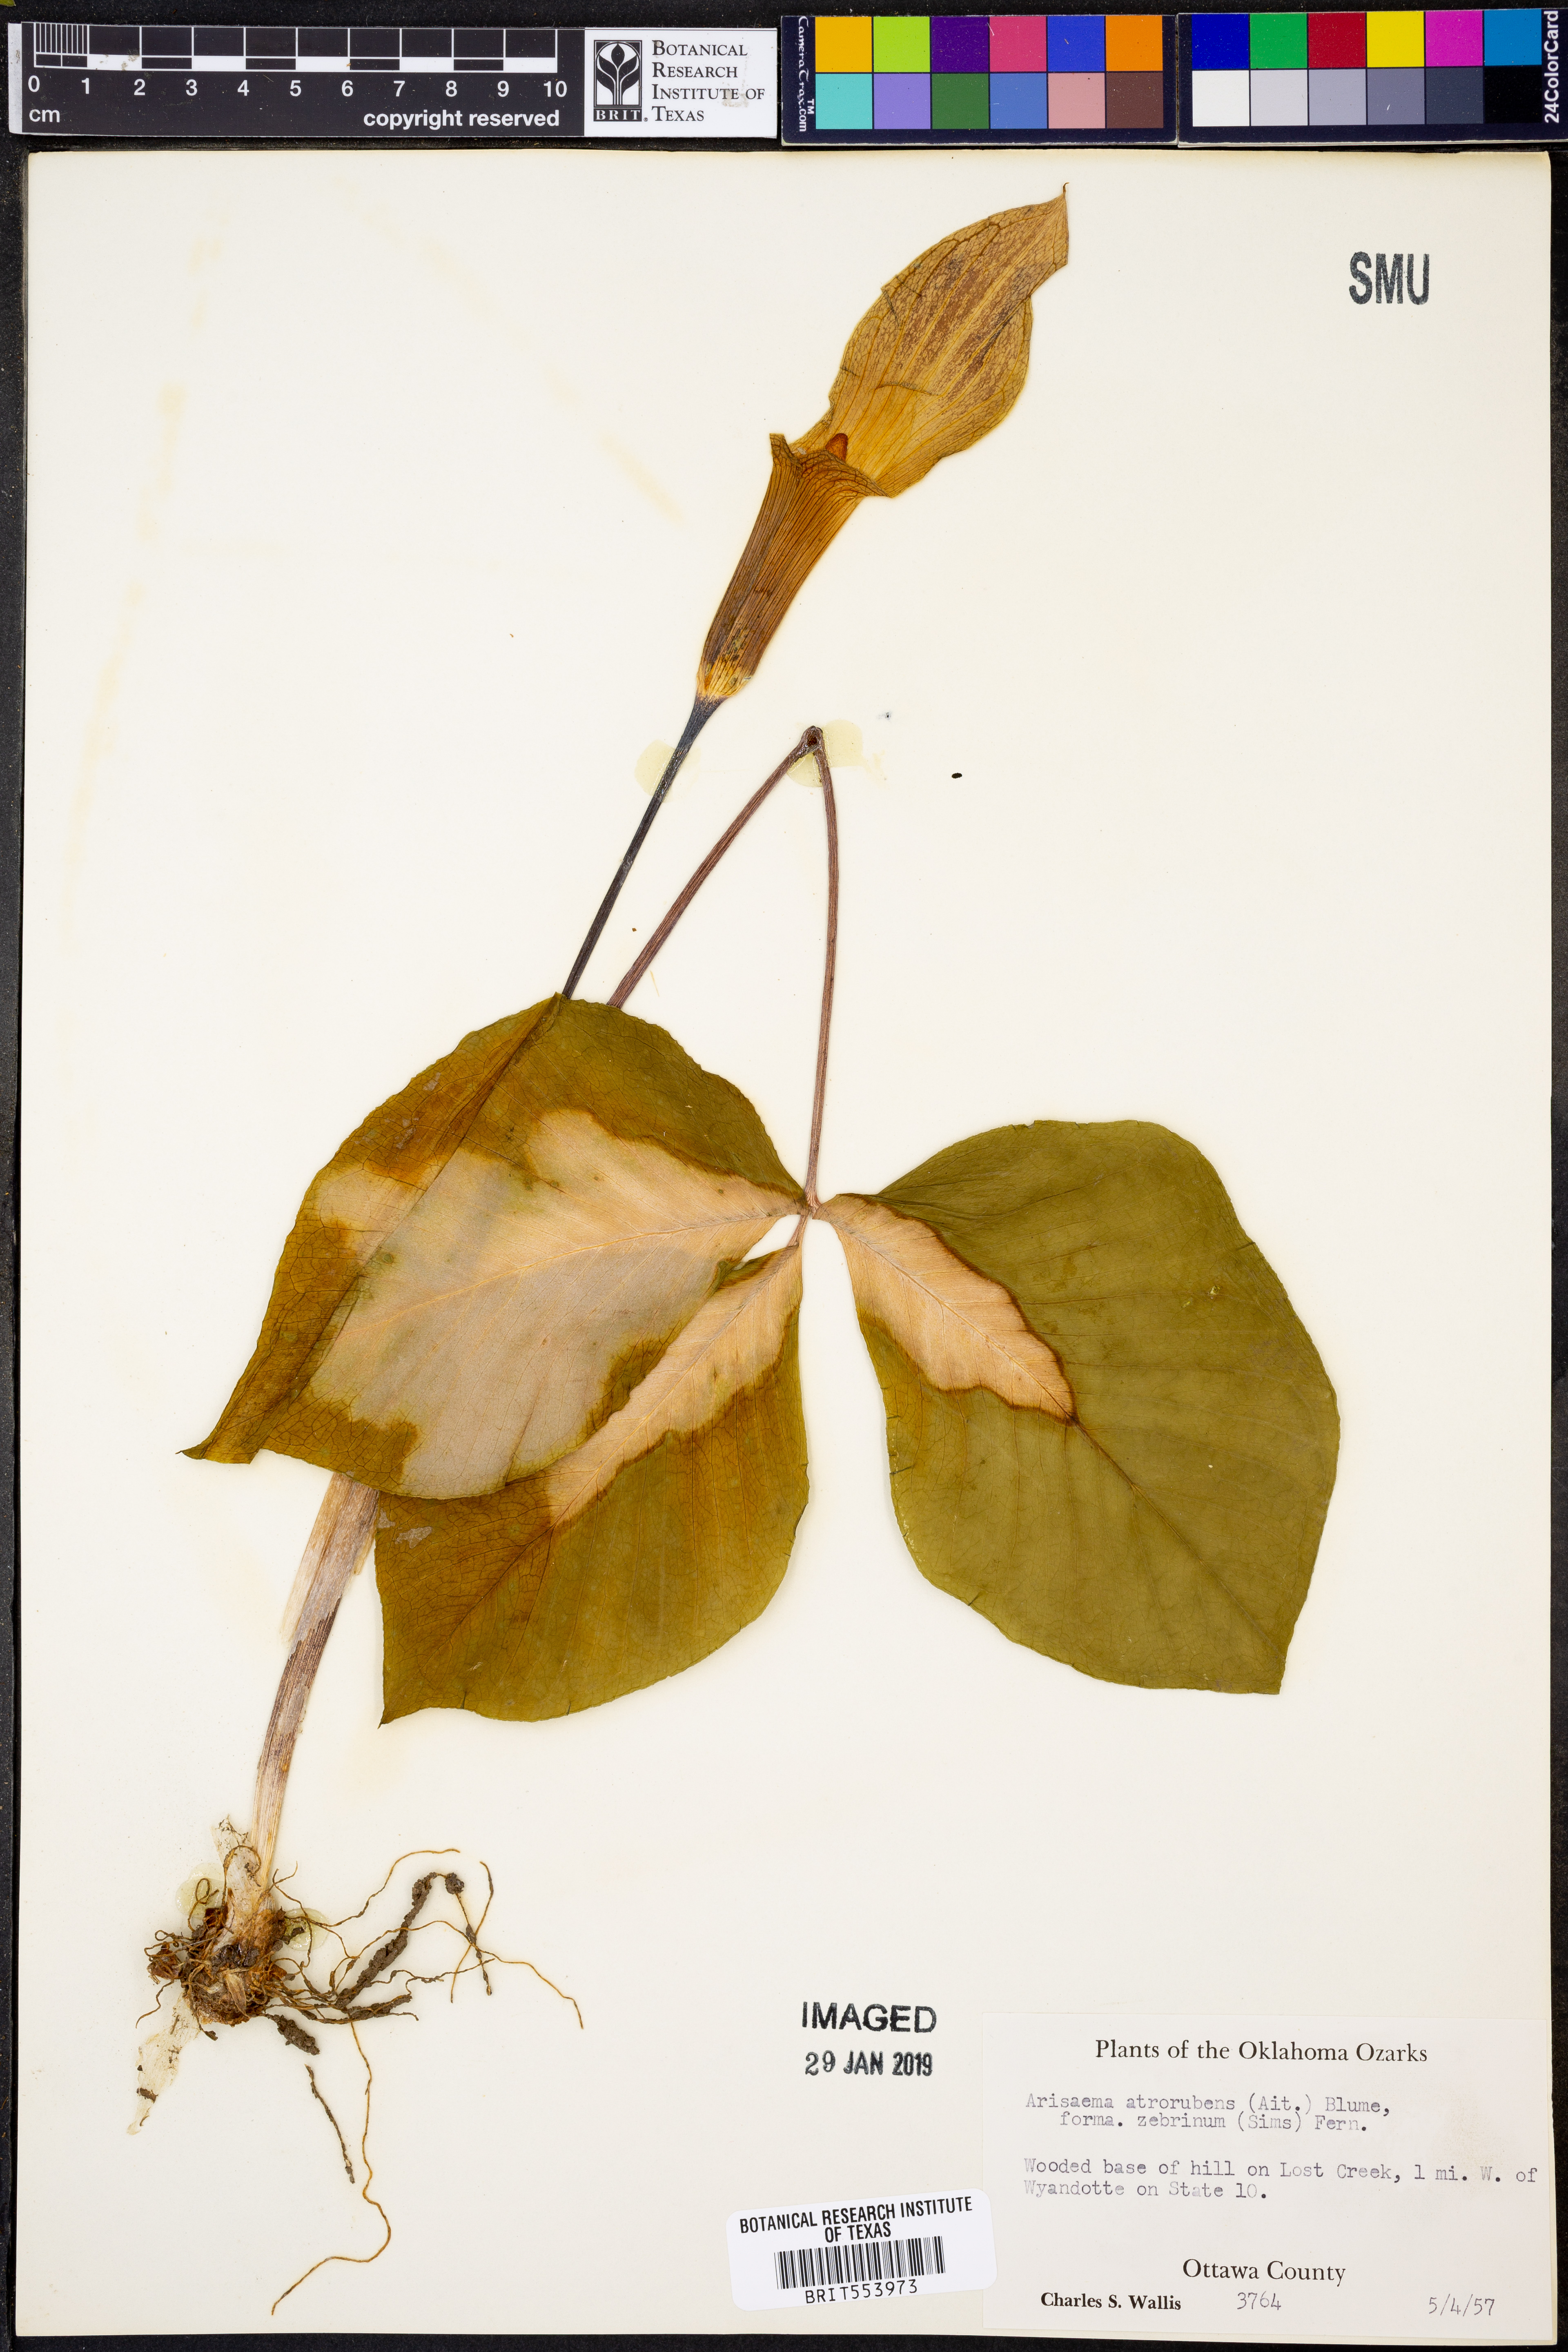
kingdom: Plantae
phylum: Tracheophyta
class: Liliopsida
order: Alismatales
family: Araceae
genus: Arisaema
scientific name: Arisaema triphyllum
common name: Jack-in-the-pulpit
